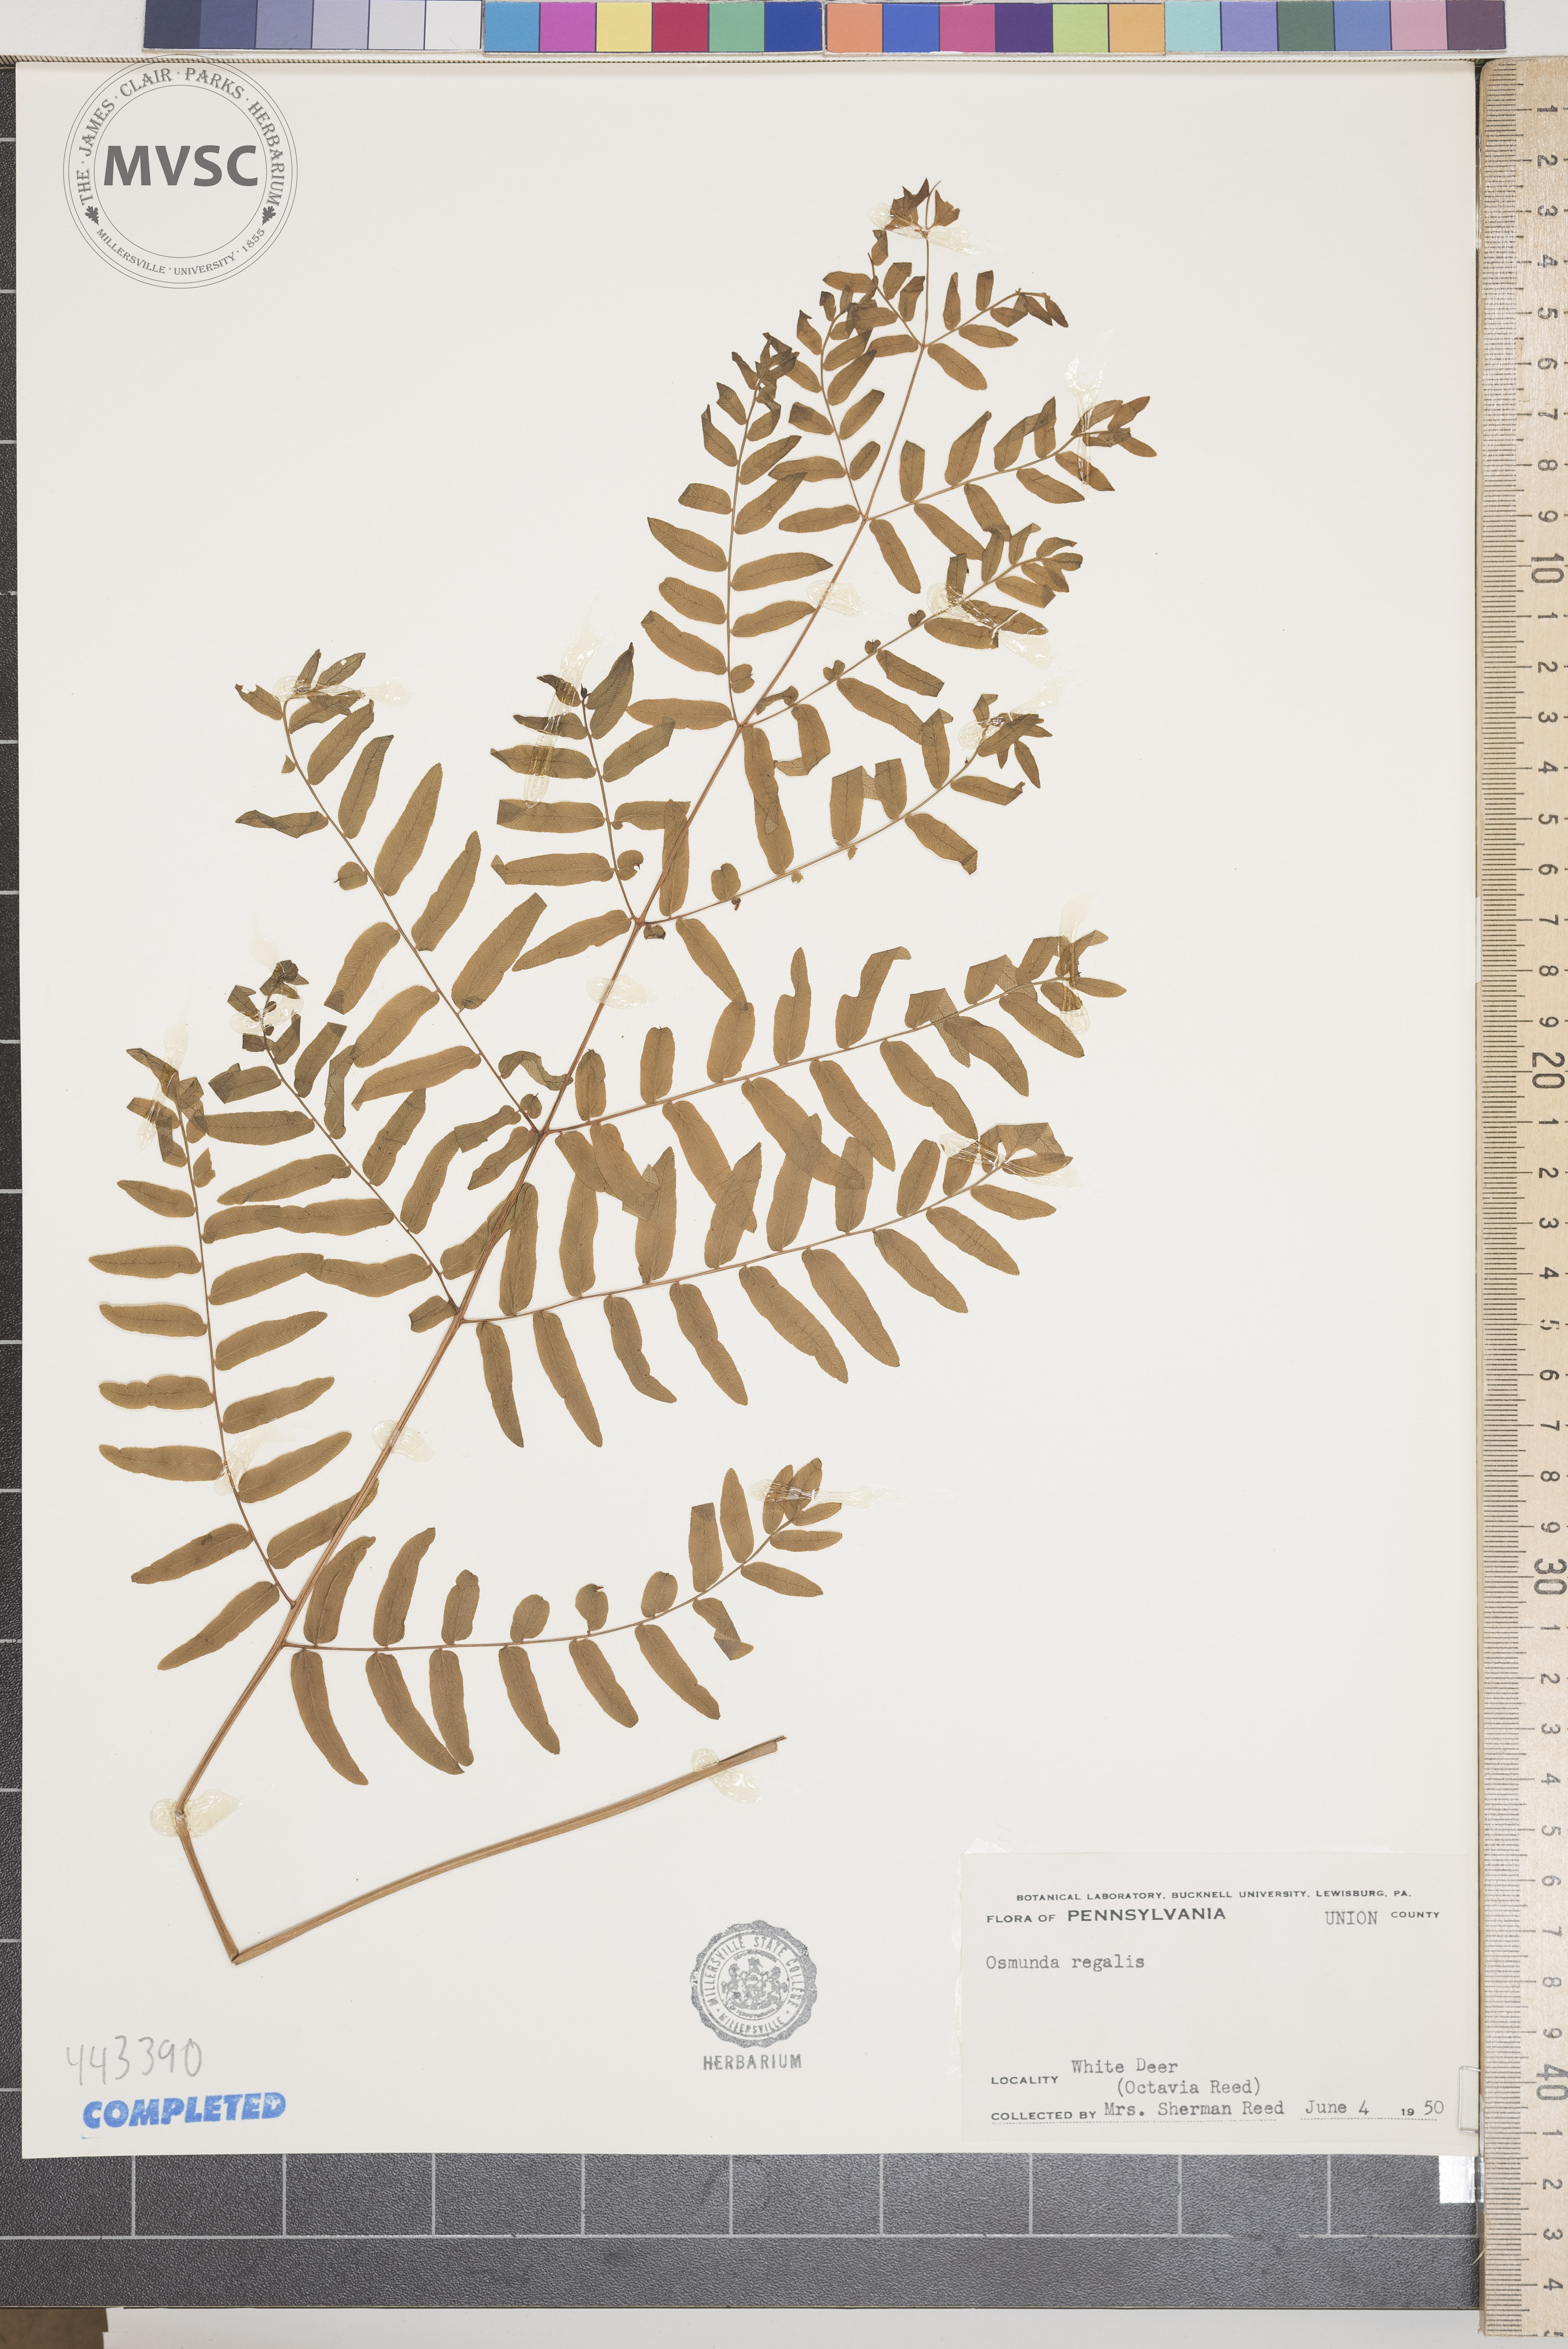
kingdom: Plantae
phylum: Tracheophyta
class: Polypodiopsida
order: Osmundales
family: Osmundaceae
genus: Osmunda
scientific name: Osmunda regalis
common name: Royal fern
